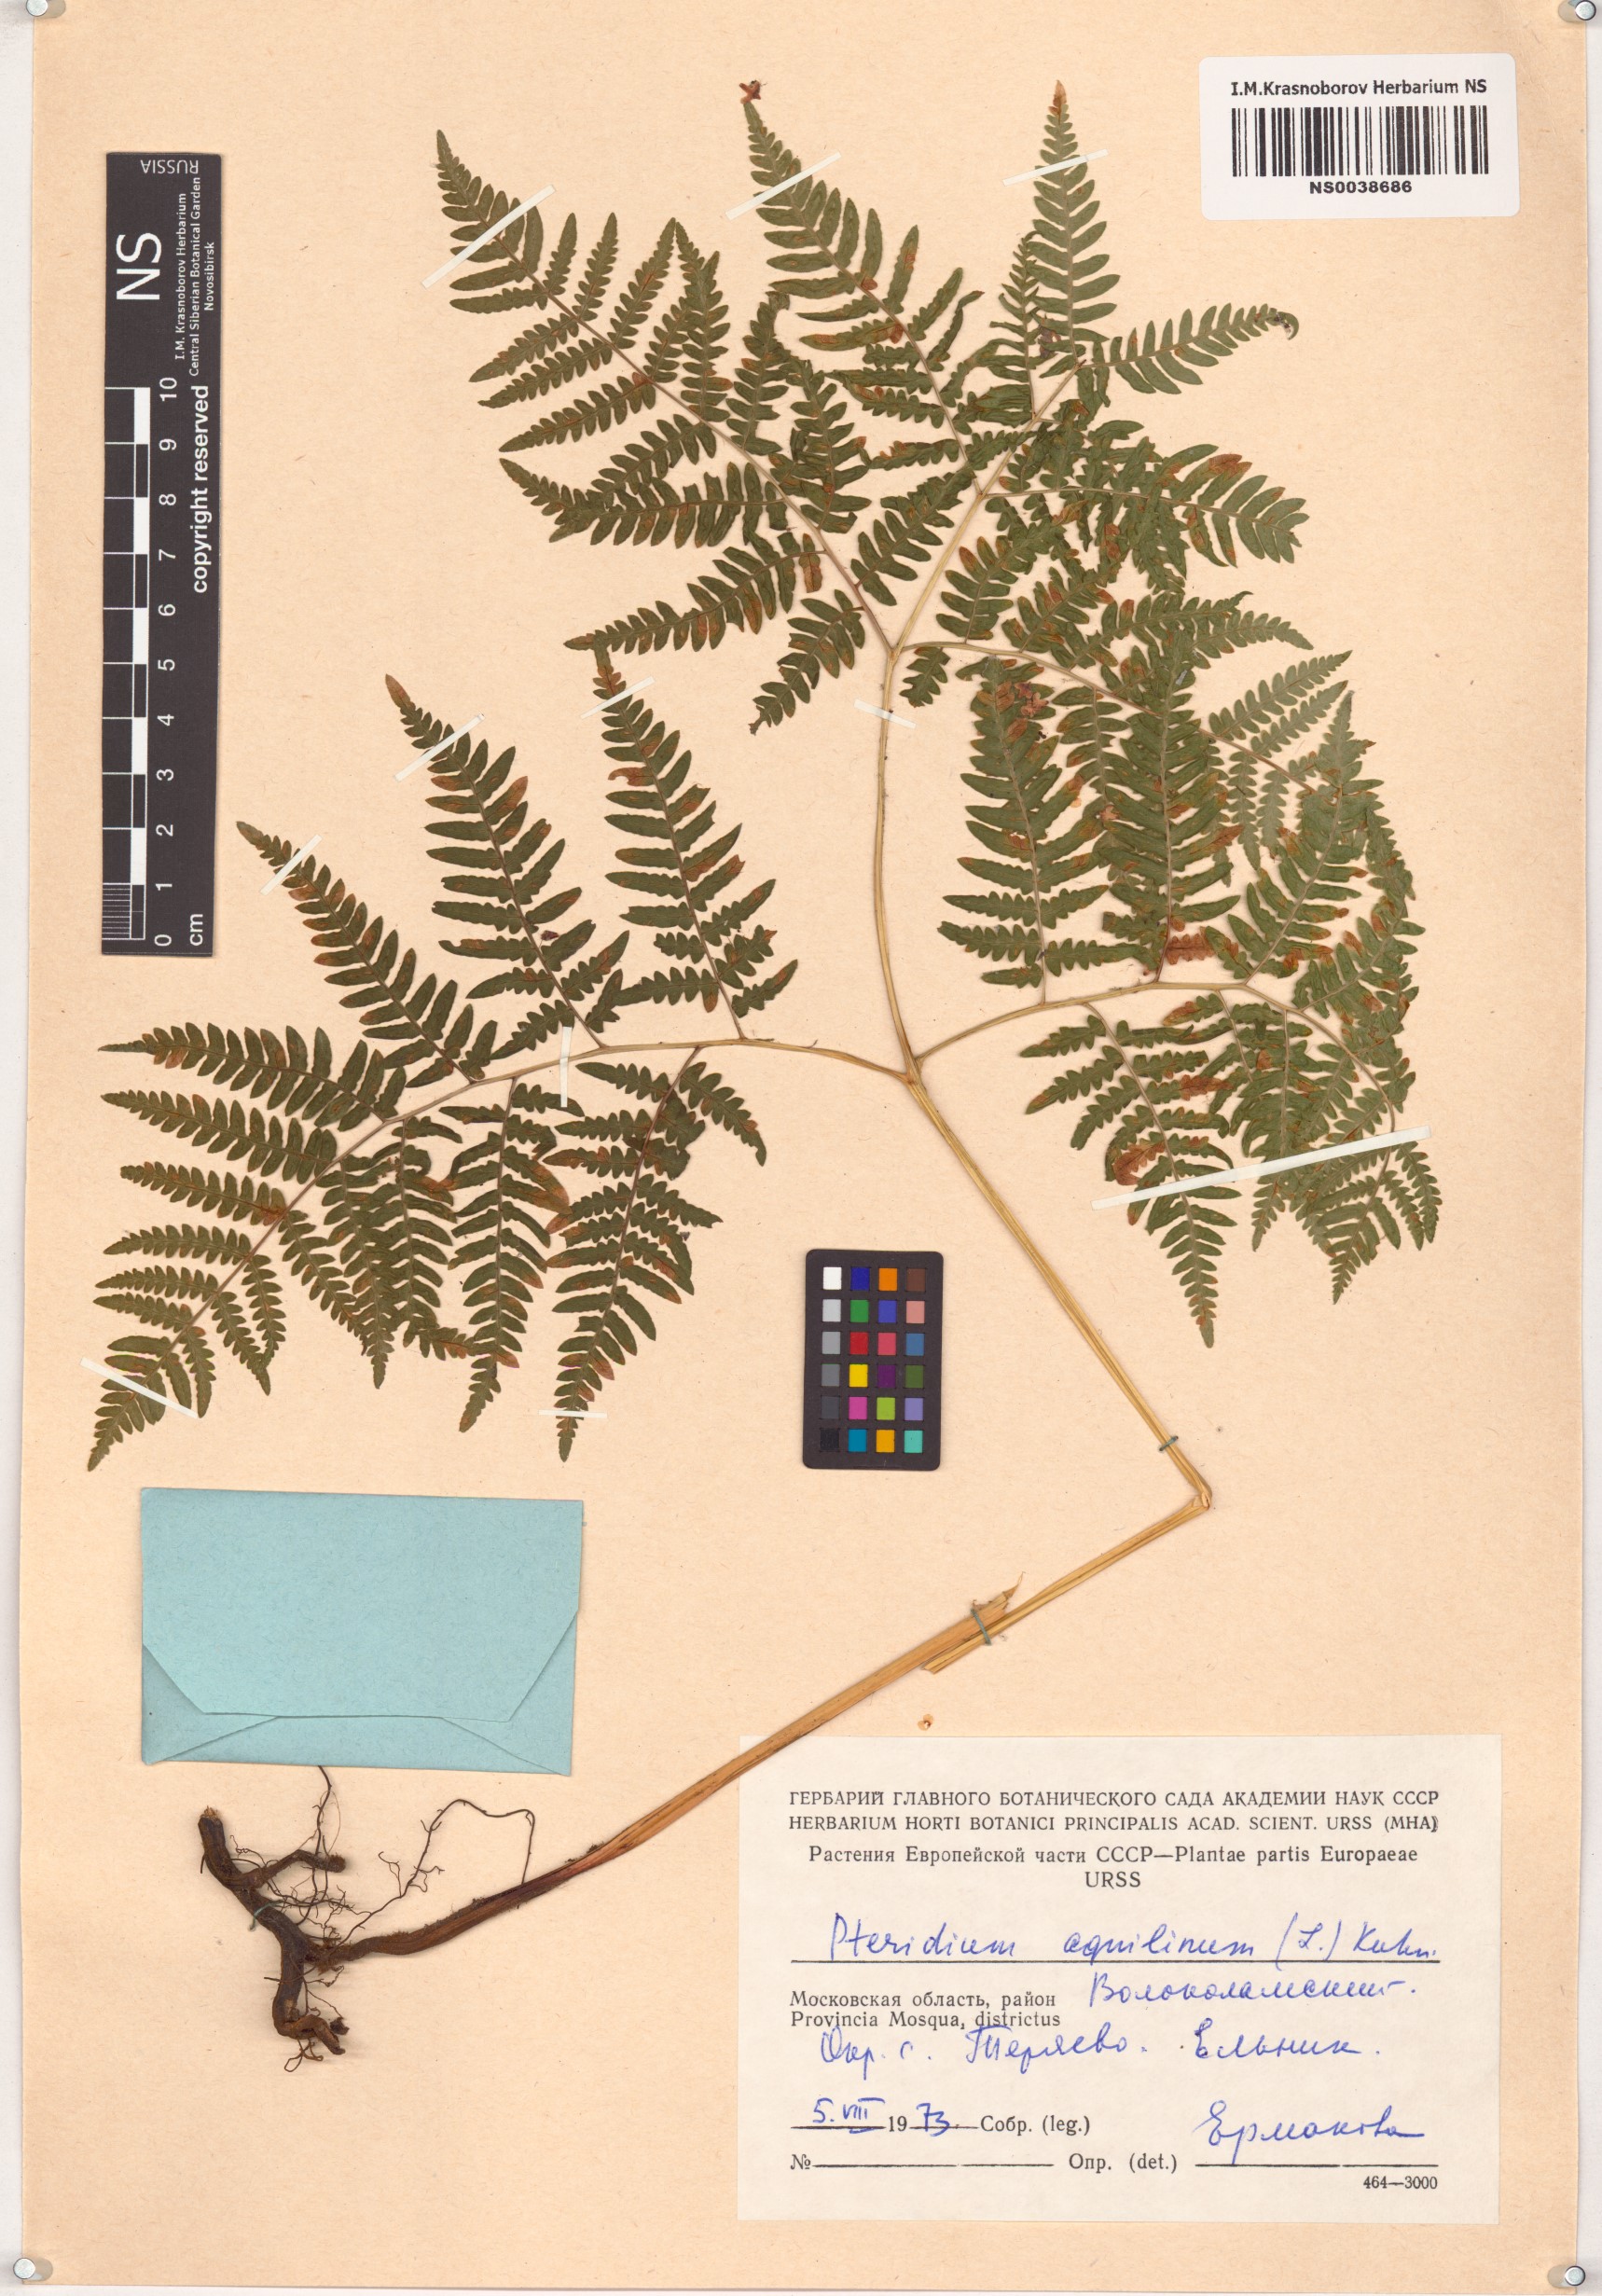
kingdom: Plantae
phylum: Tracheophyta
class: Polypodiopsida
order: Polypodiales
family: Dennstaedtiaceae
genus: Pteridium
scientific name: Pteridium aquilinum
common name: Bracken
